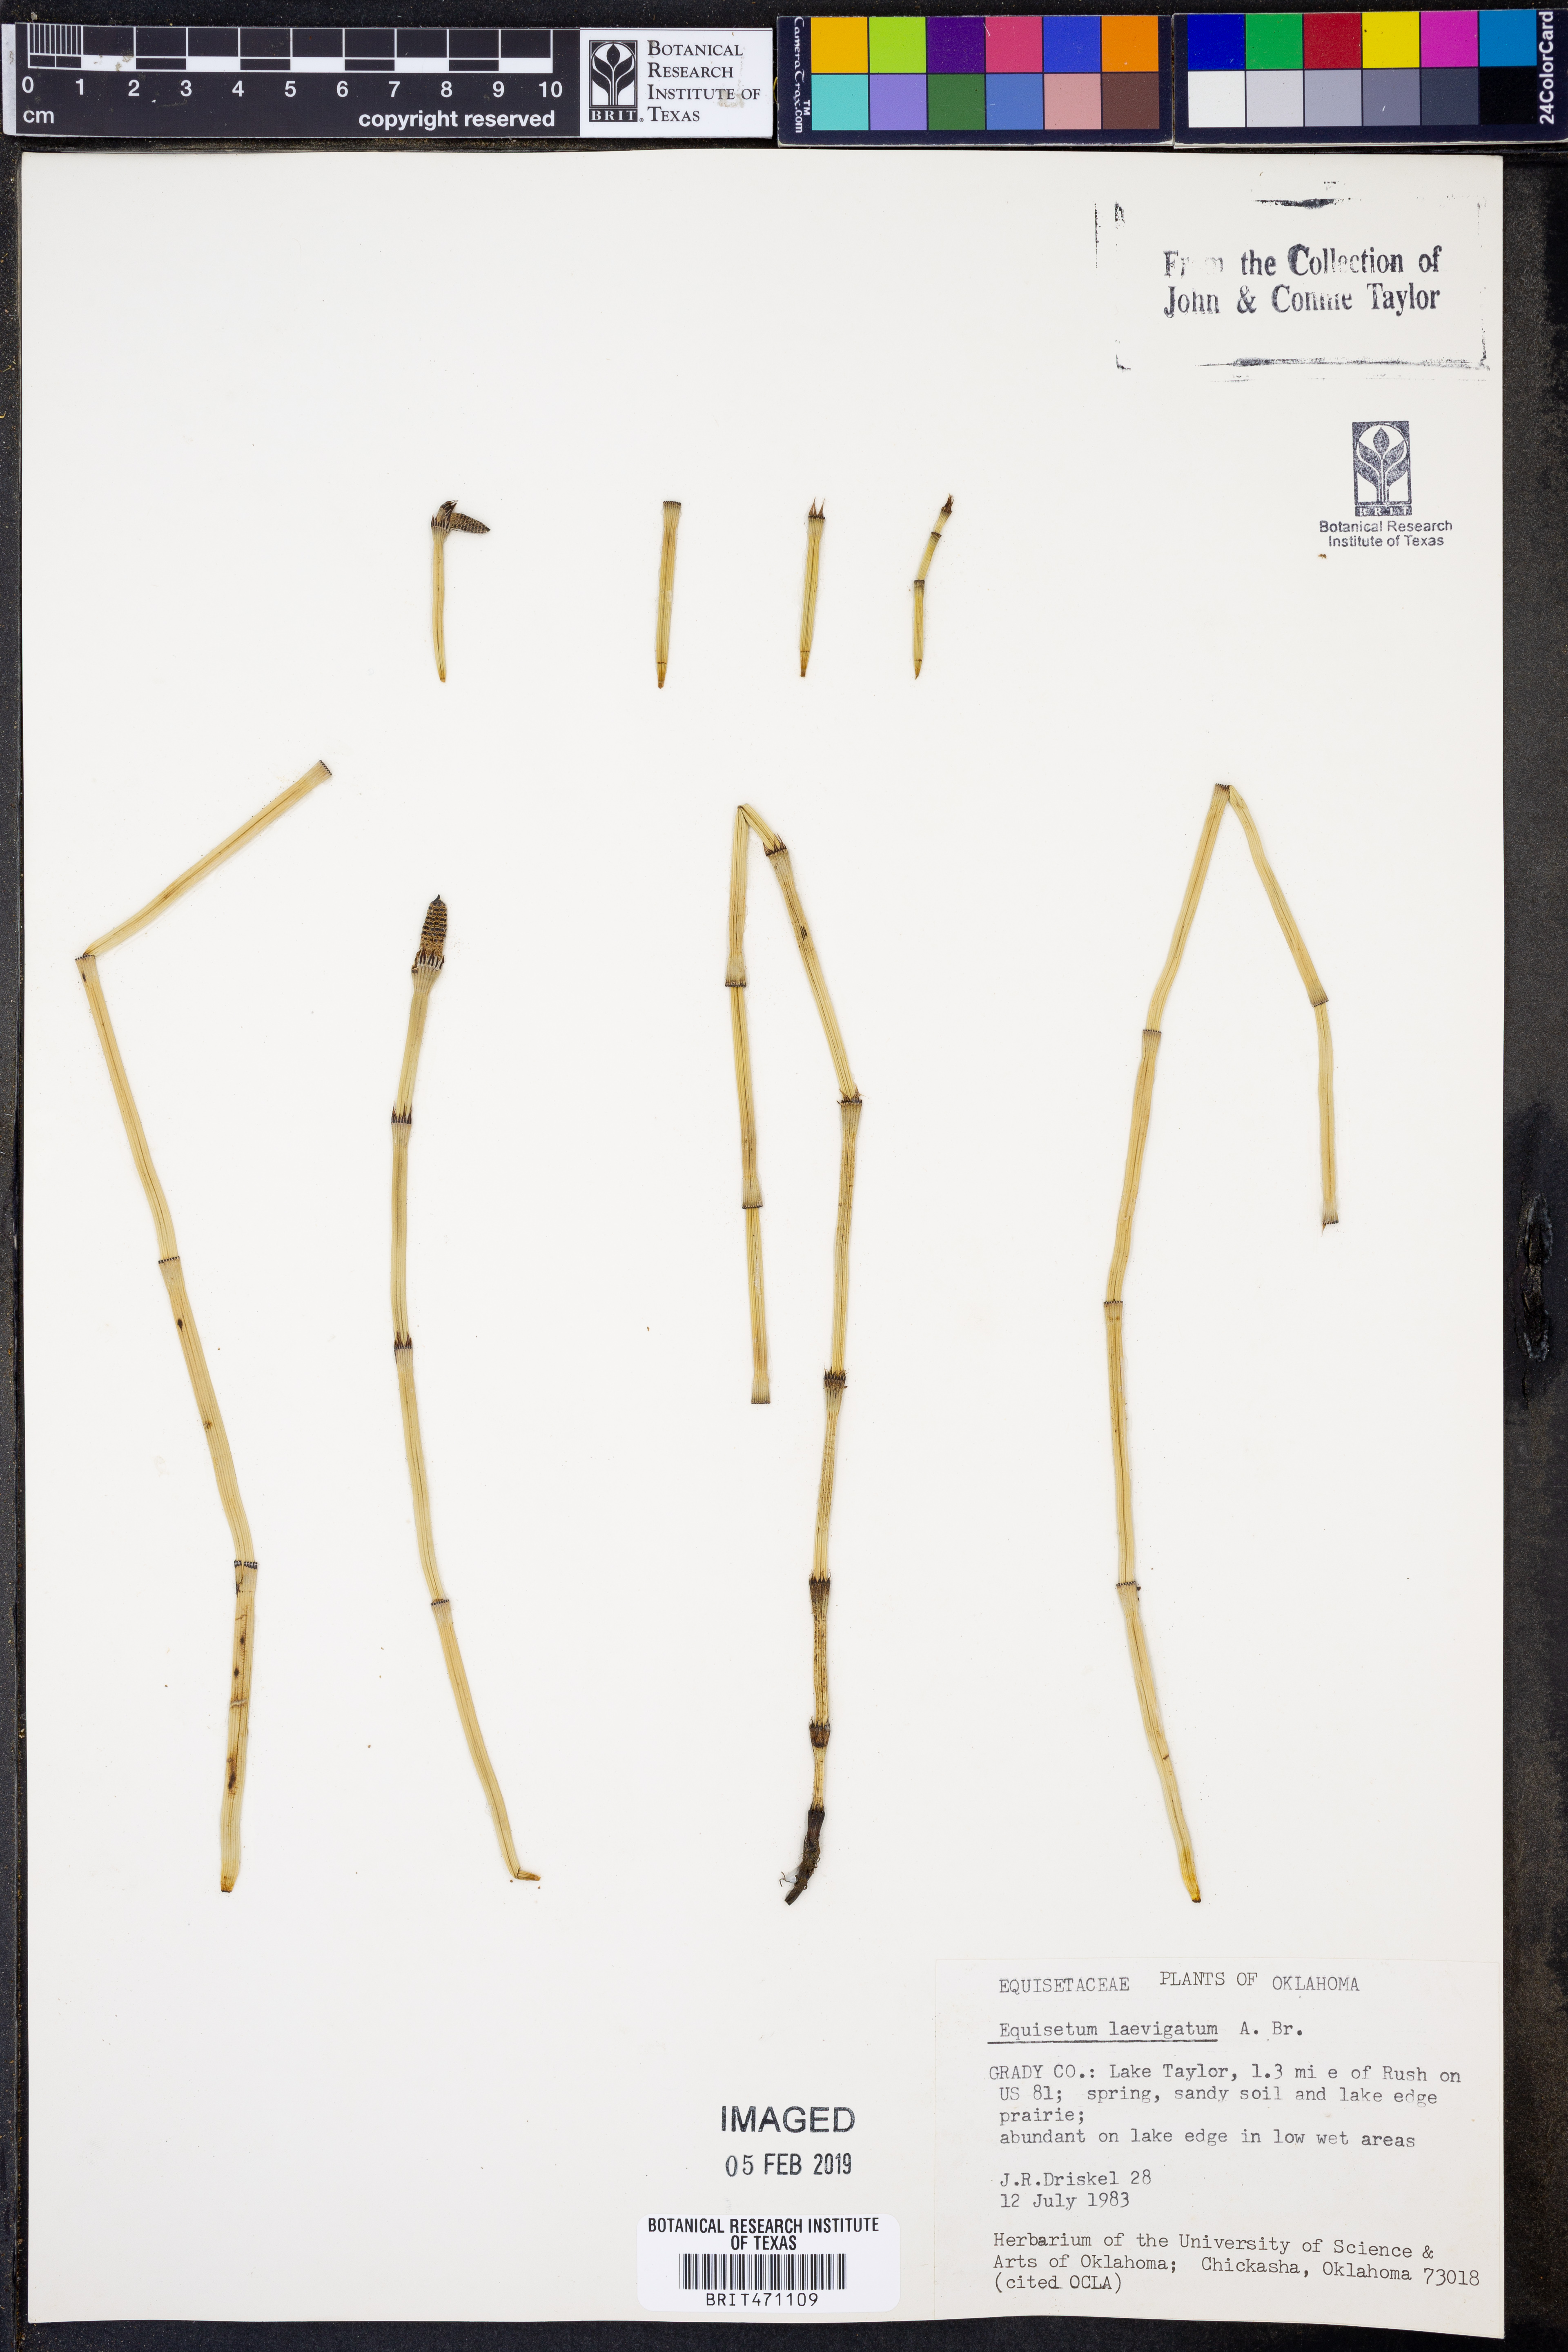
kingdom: Plantae
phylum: Tracheophyta
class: Polypodiopsida
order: Equisetales
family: Equisetaceae
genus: Equisetum
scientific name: Equisetum laevigatum
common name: Smooth scouring-rush
